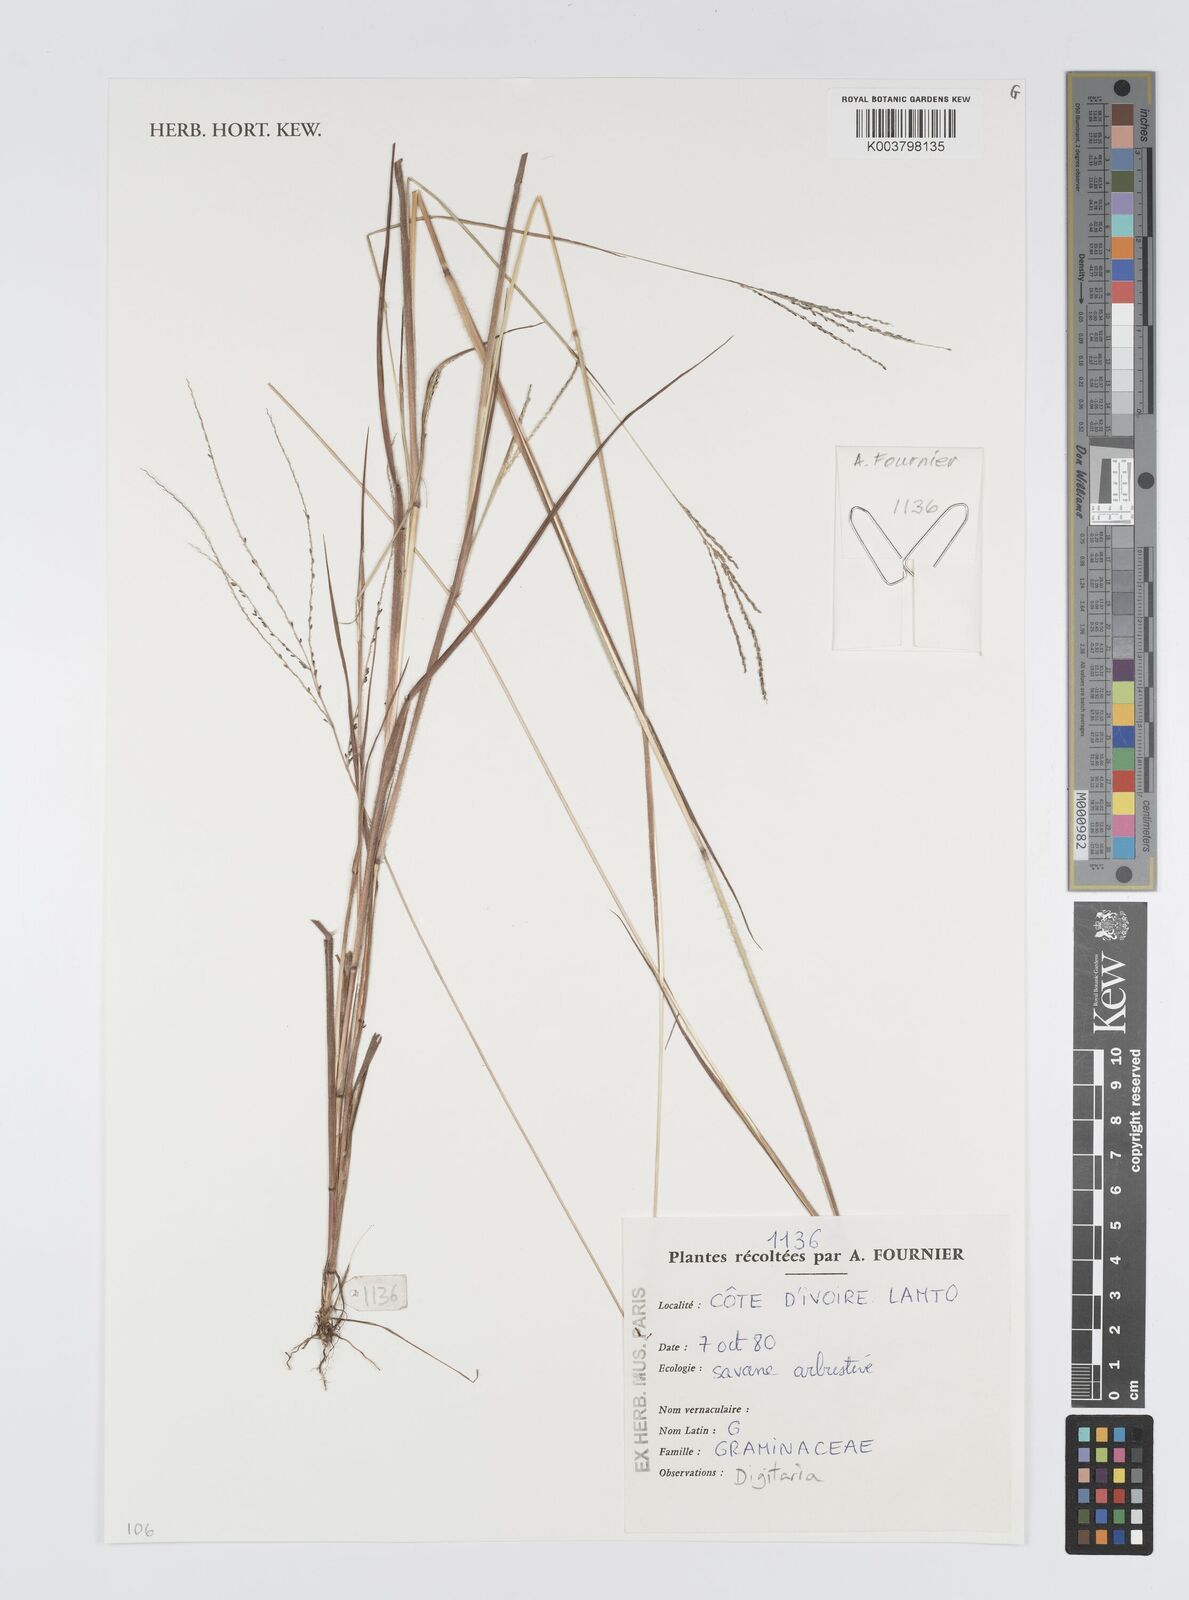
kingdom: Plantae
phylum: Tracheophyta
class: Liliopsida
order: Poales
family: Poaceae
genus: Digitaria
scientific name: Digitaria
